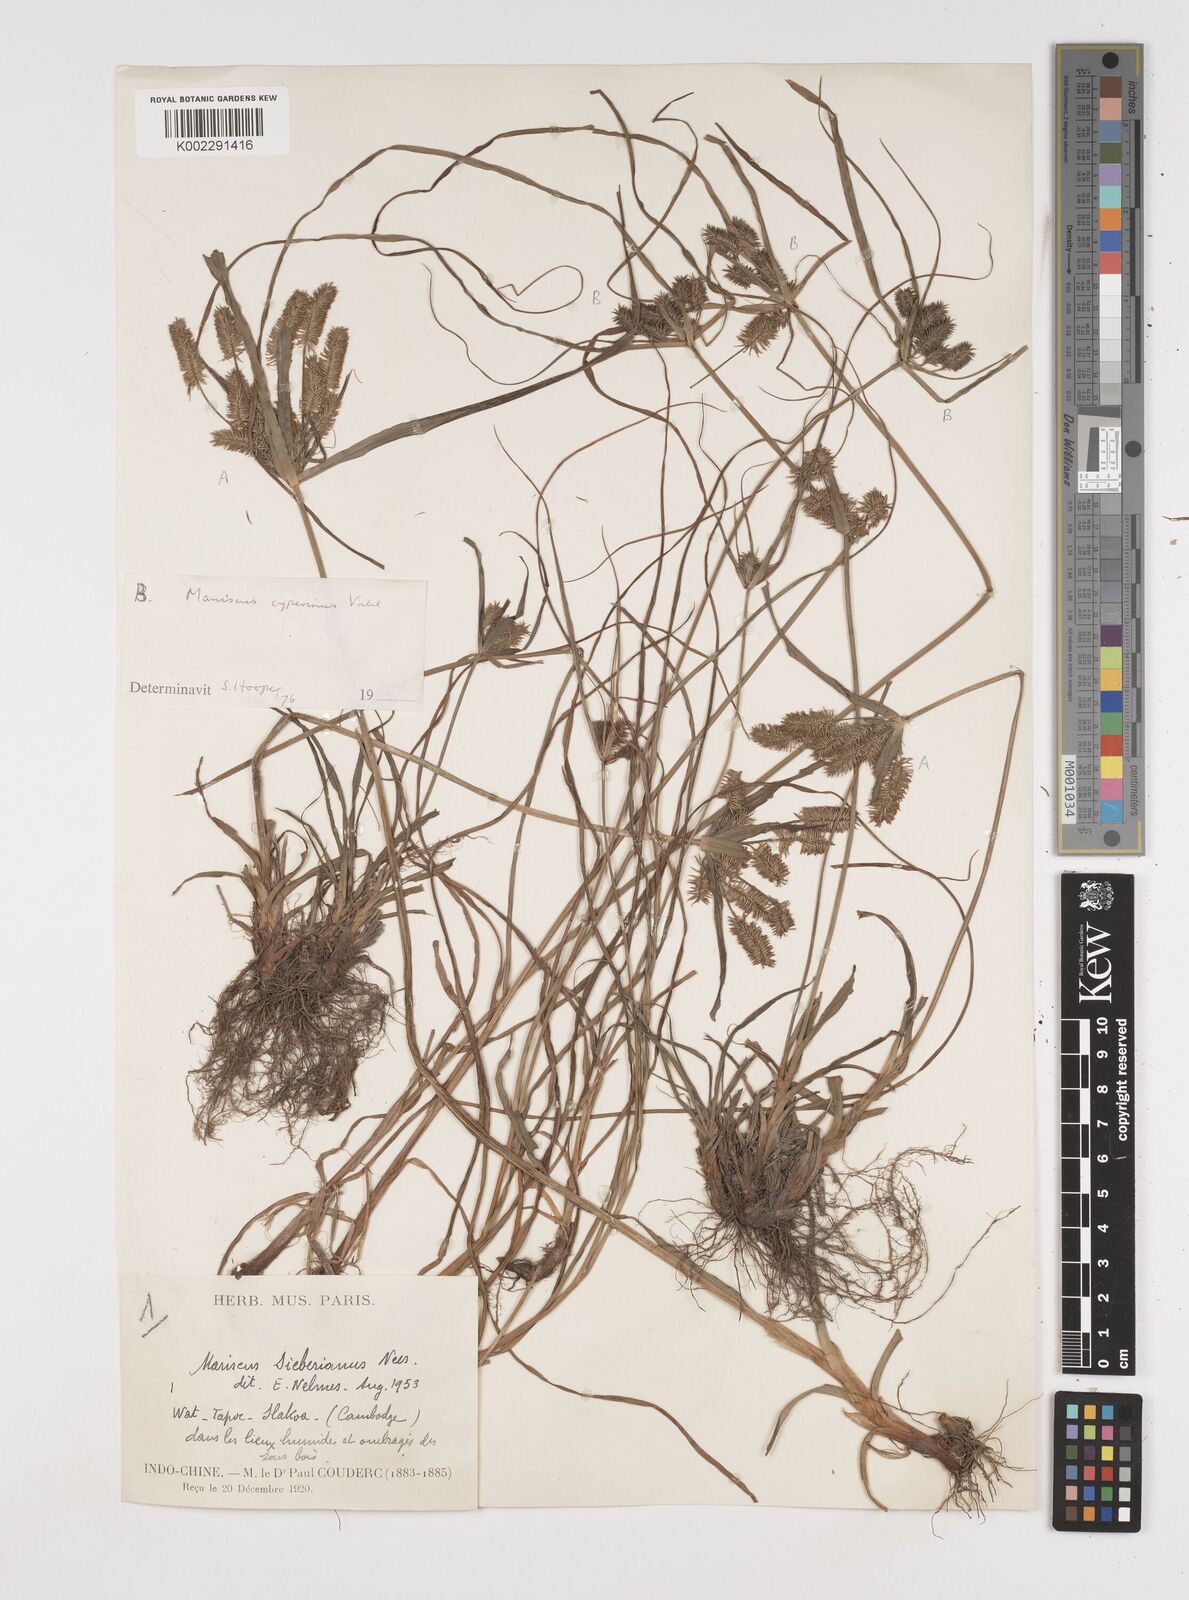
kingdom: Plantae
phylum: Tracheophyta
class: Liliopsida
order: Poales
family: Cyperaceae
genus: Cyperus
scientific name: Cyperus cyperoides
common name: Pacific island flat sedge
